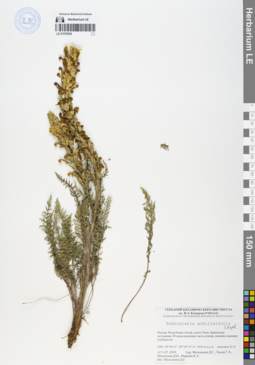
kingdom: Plantae
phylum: Tracheophyta
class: Magnoliopsida
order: Lamiales
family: Orobanchaceae
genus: Pedicularis
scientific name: Pedicularis achilleifolia
